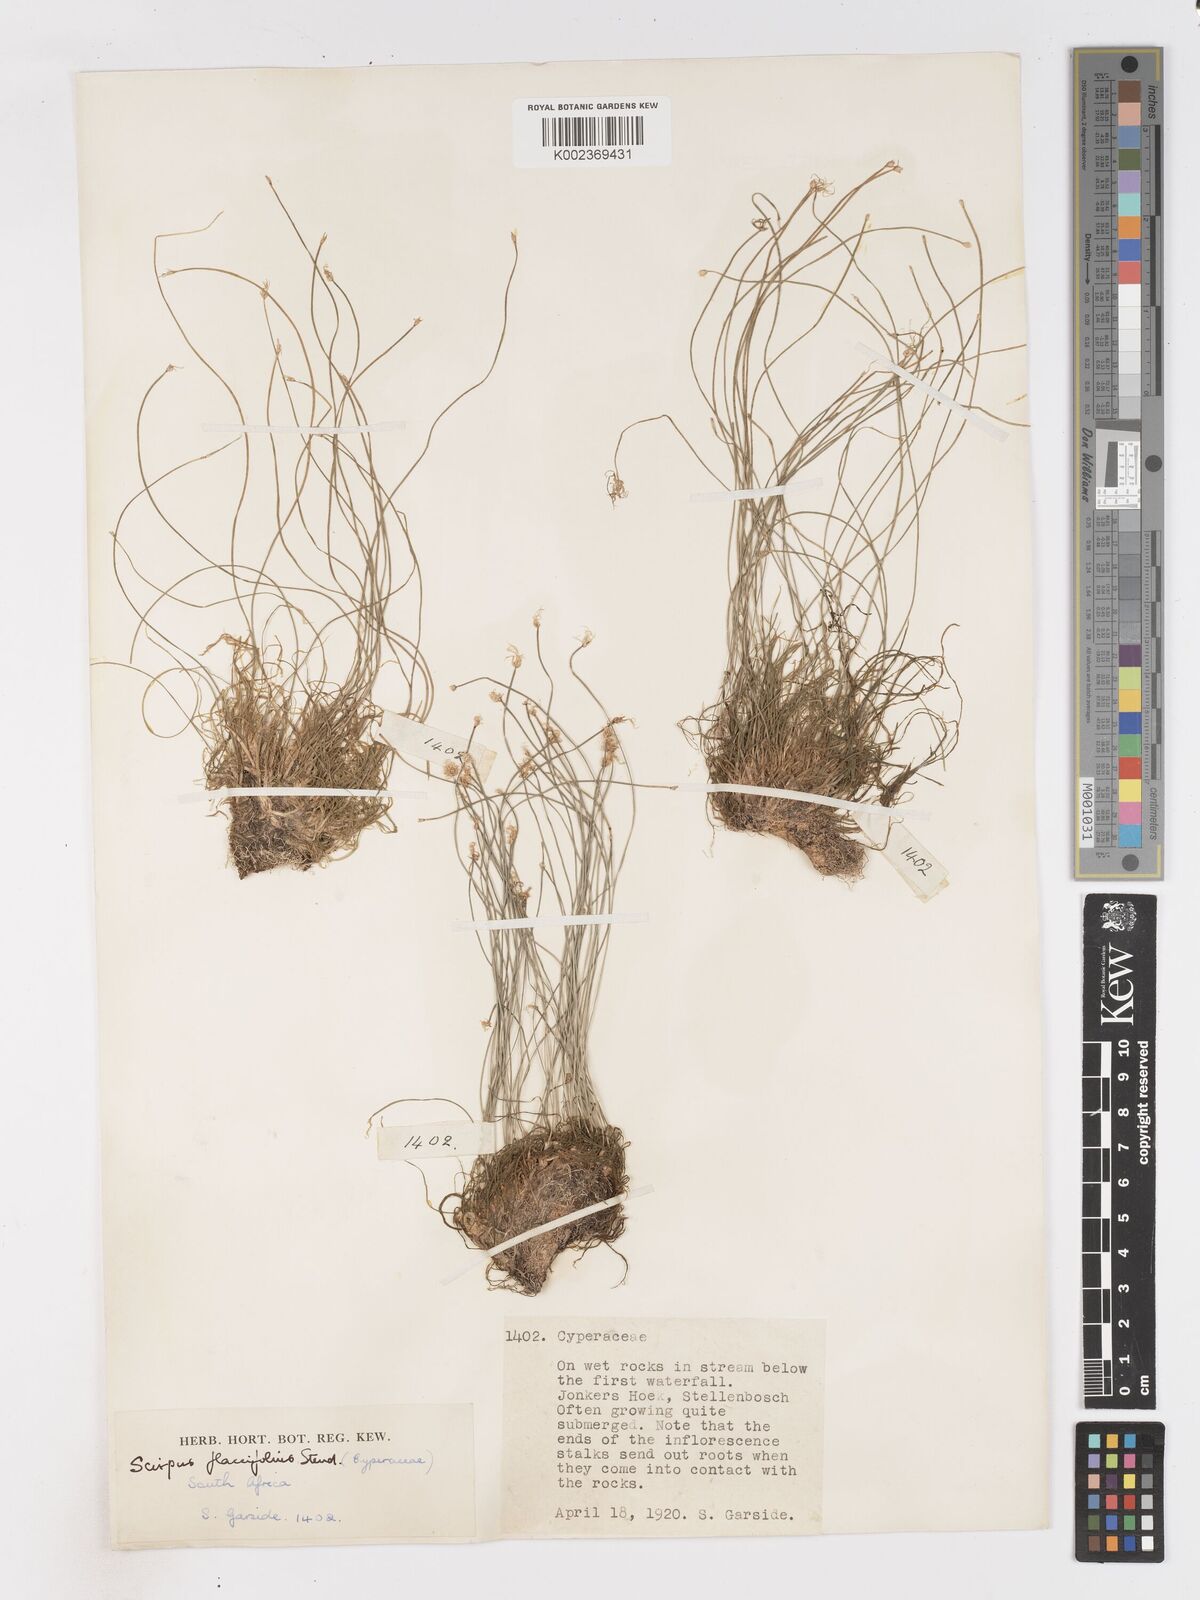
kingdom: Plantae
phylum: Tracheophyta
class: Liliopsida
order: Poales
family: Cyperaceae
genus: Isolepis
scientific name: Isolepis digitata
